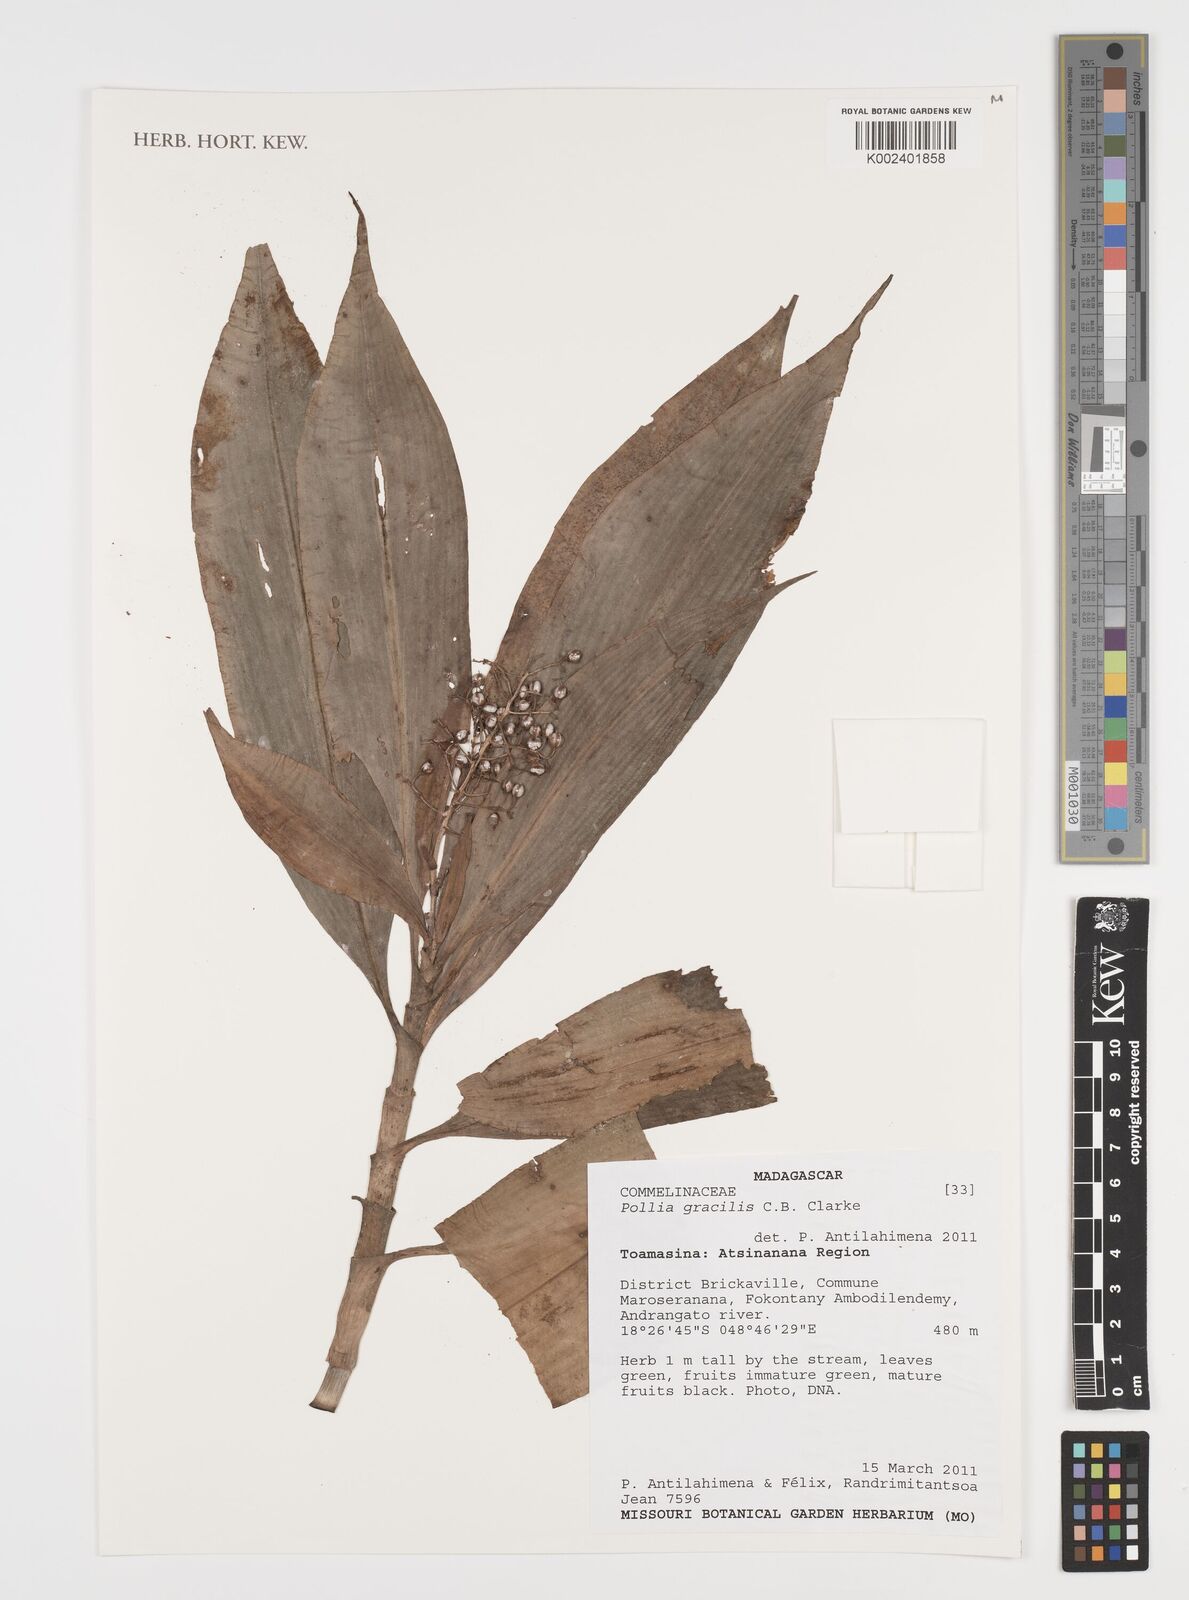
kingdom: Plantae
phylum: Tracheophyta
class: Liliopsida
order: Commelinales
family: Commelinaceae
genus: Pollia
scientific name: Pollia gracilis
